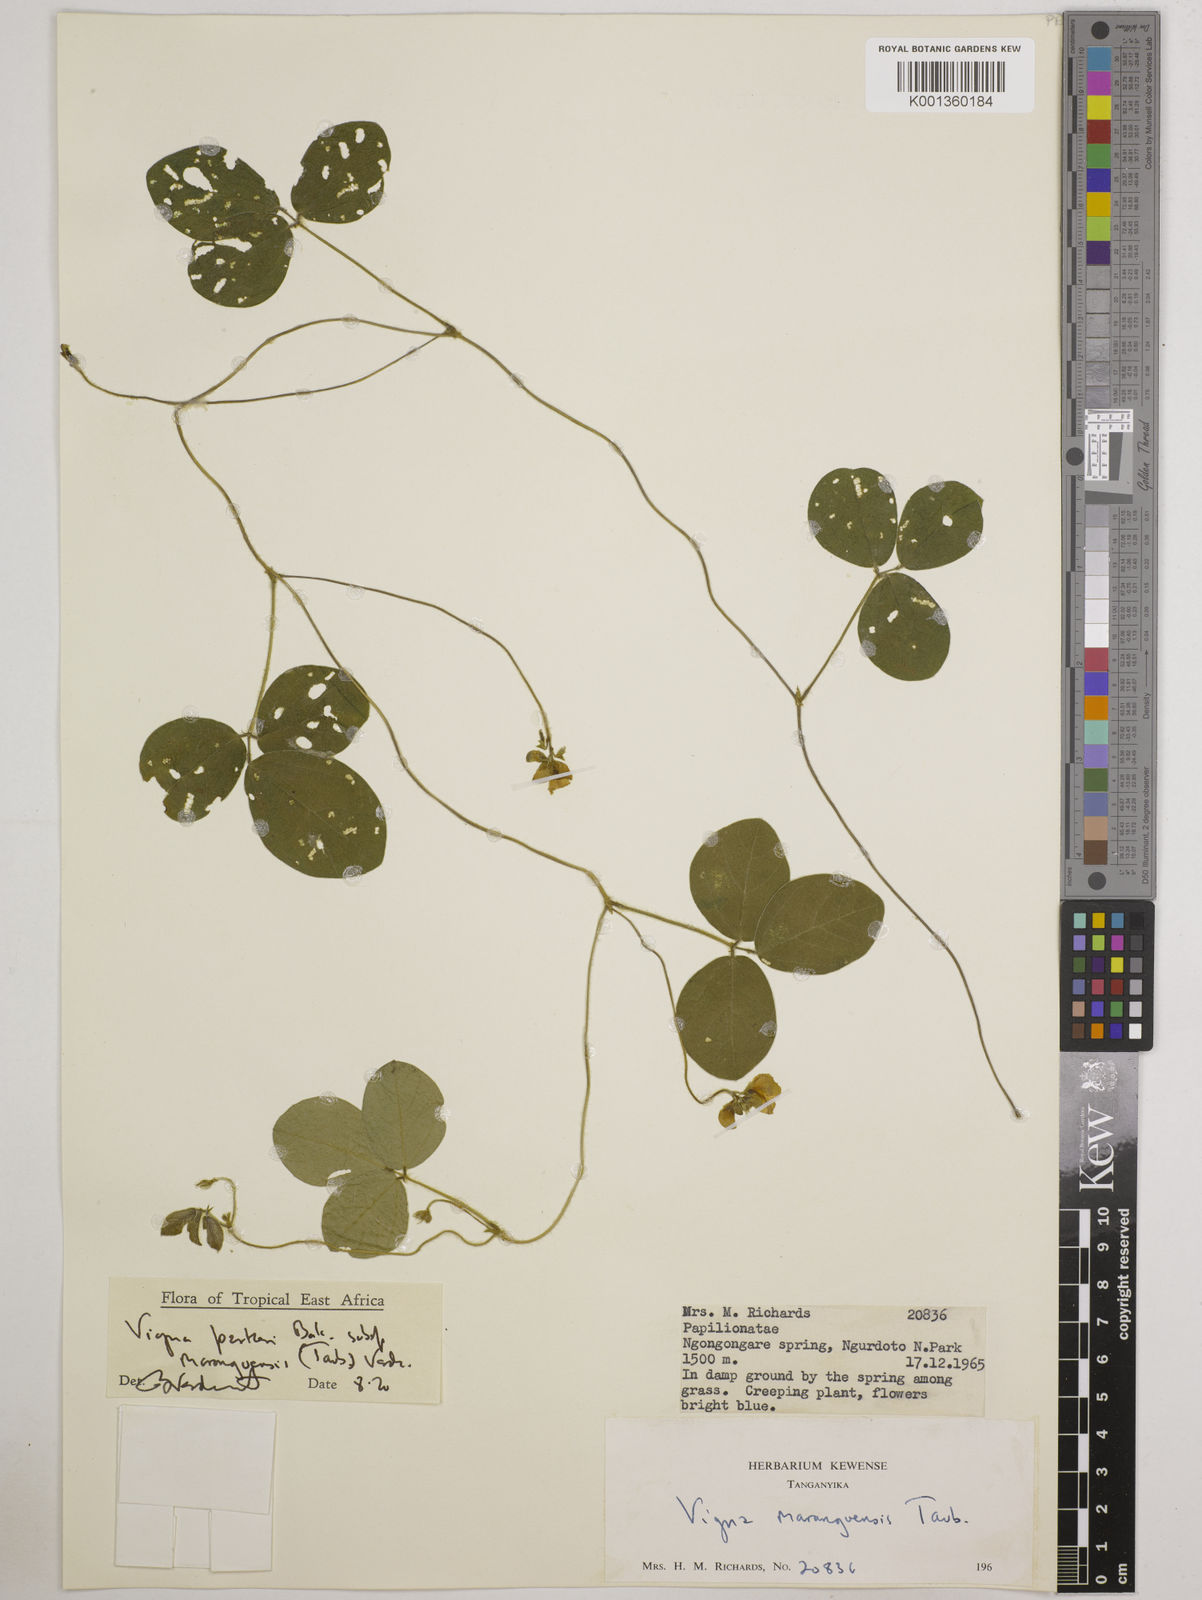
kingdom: Plantae
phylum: Tracheophyta
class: Magnoliopsida
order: Fabales
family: Fabaceae
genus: Vigna
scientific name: Vigna
